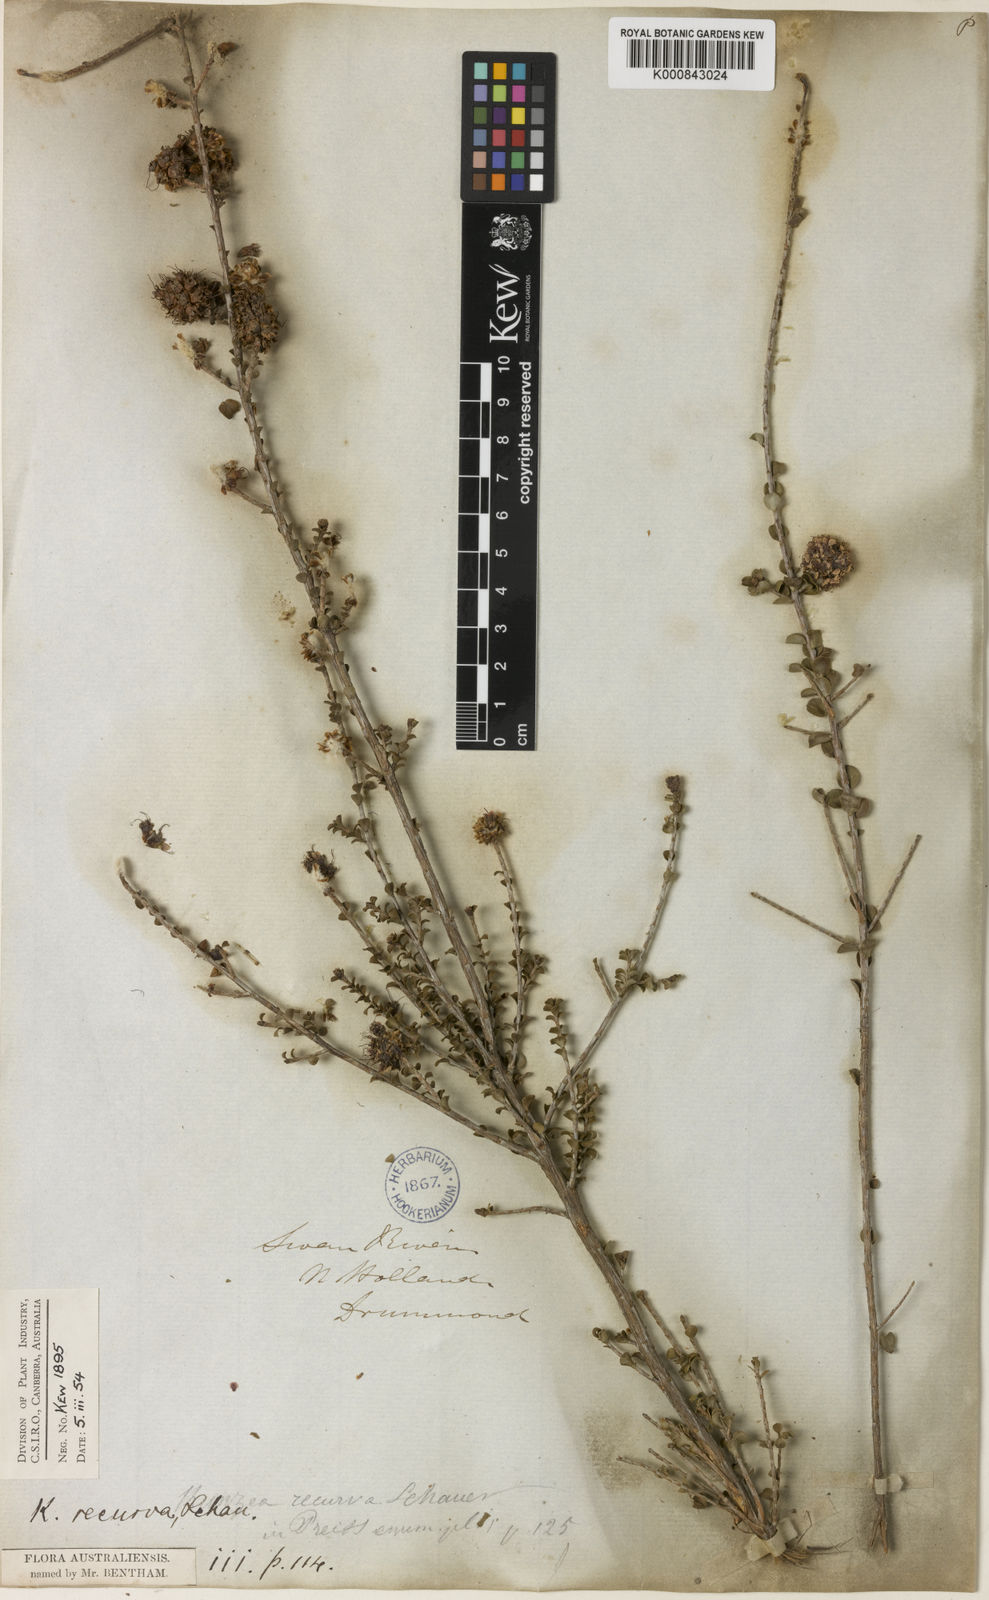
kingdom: Plantae
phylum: Tracheophyta
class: Magnoliopsida
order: Myrtales
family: Myrtaceae
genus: Kunzea
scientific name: Kunzea recurva
